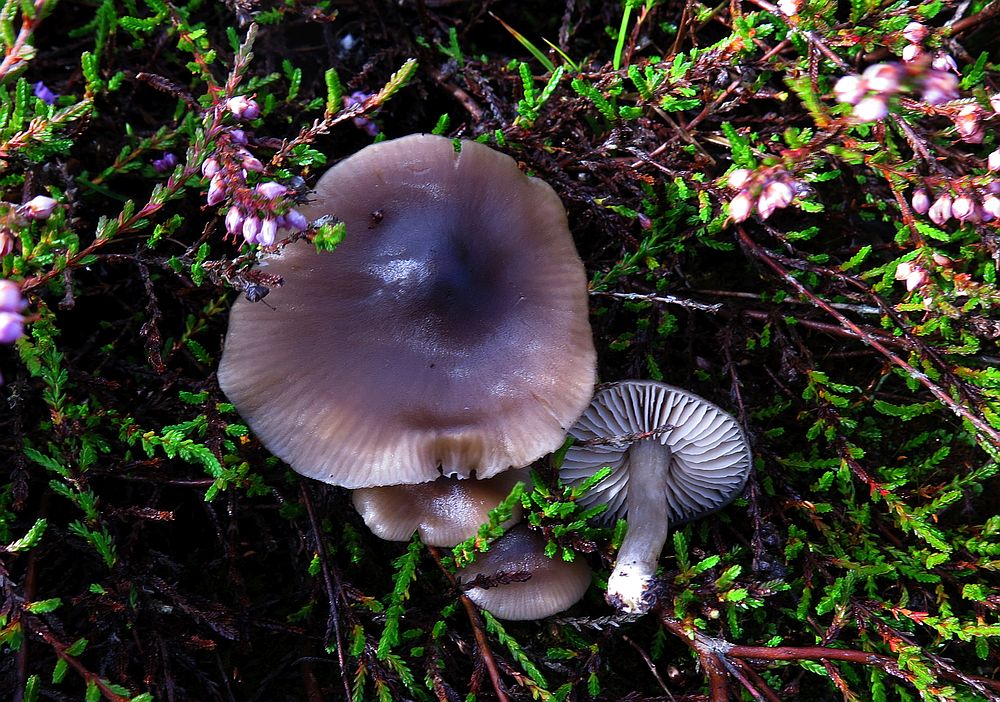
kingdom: Fungi
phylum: Basidiomycota
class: Agaricomycetes
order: Agaricales
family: Entolomataceae
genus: Entocybe
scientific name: Entocybe turbida
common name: plantage-rødblad
